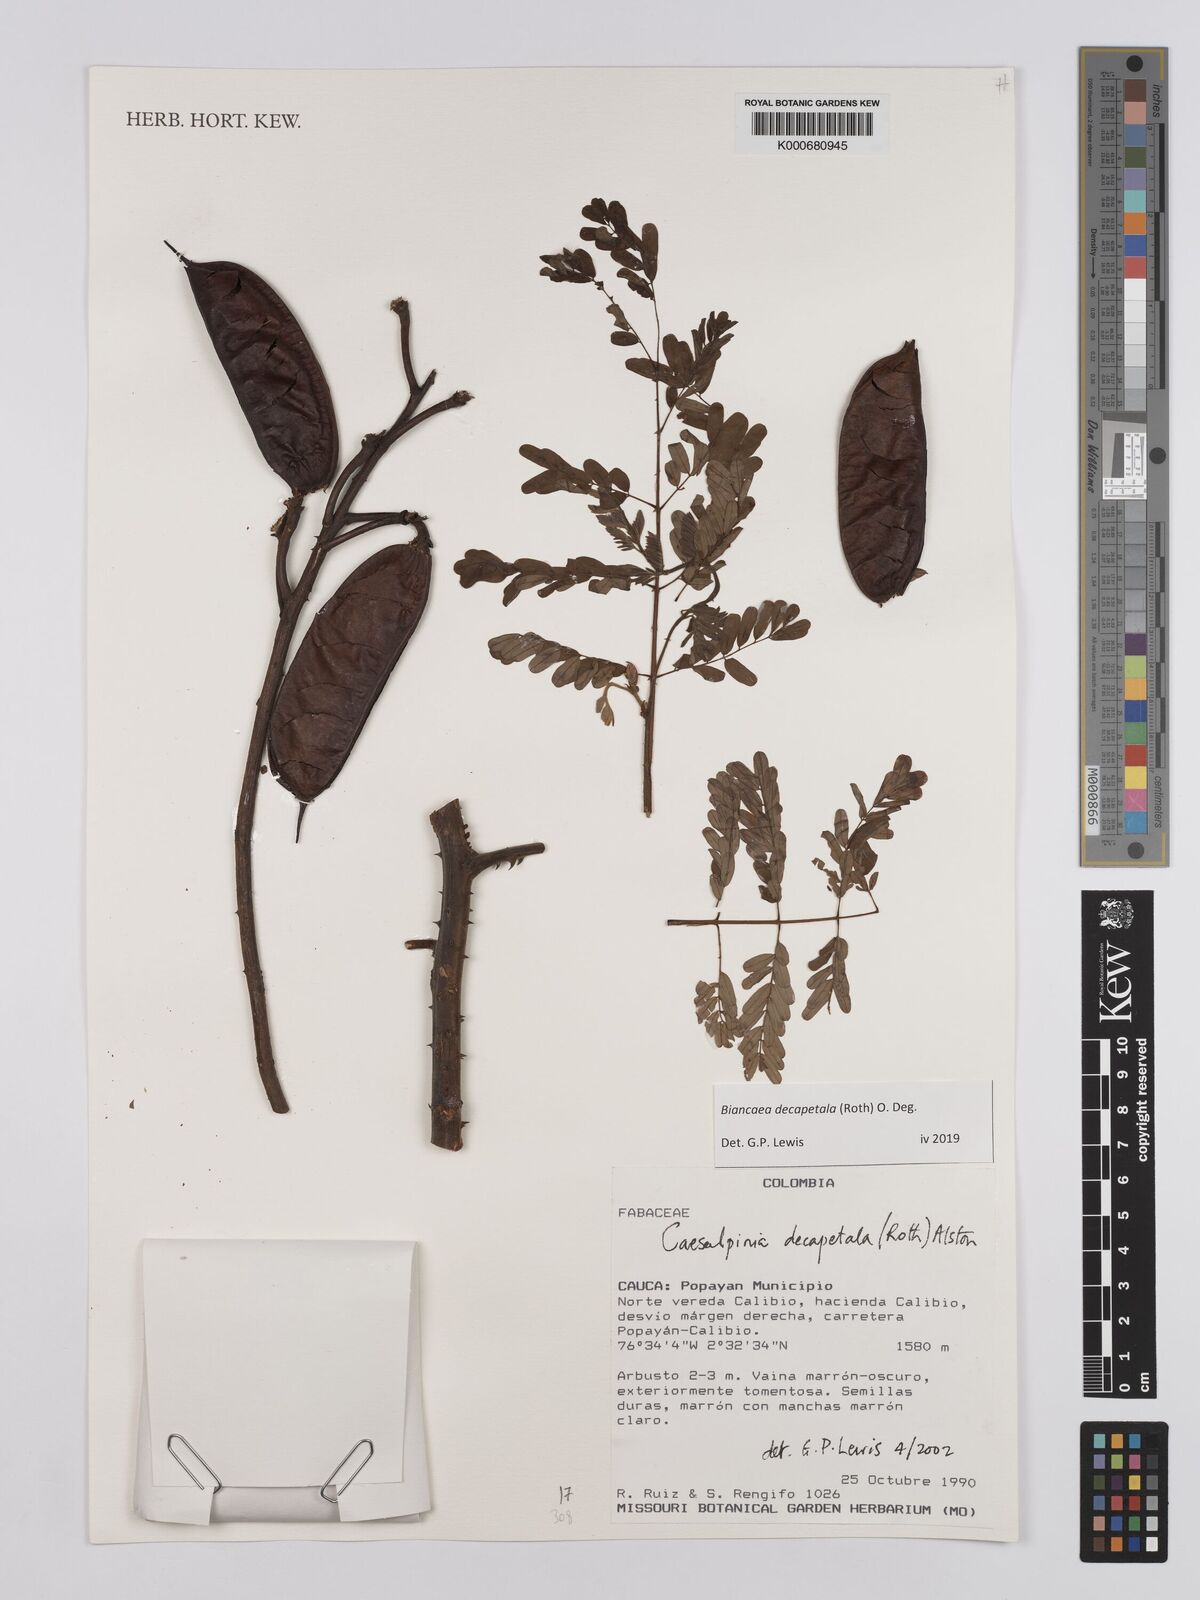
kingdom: Plantae
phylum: Tracheophyta
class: Magnoliopsida
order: Fabales
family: Fabaceae
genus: Biancaea
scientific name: Biancaea decapetala
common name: Cat's claw
